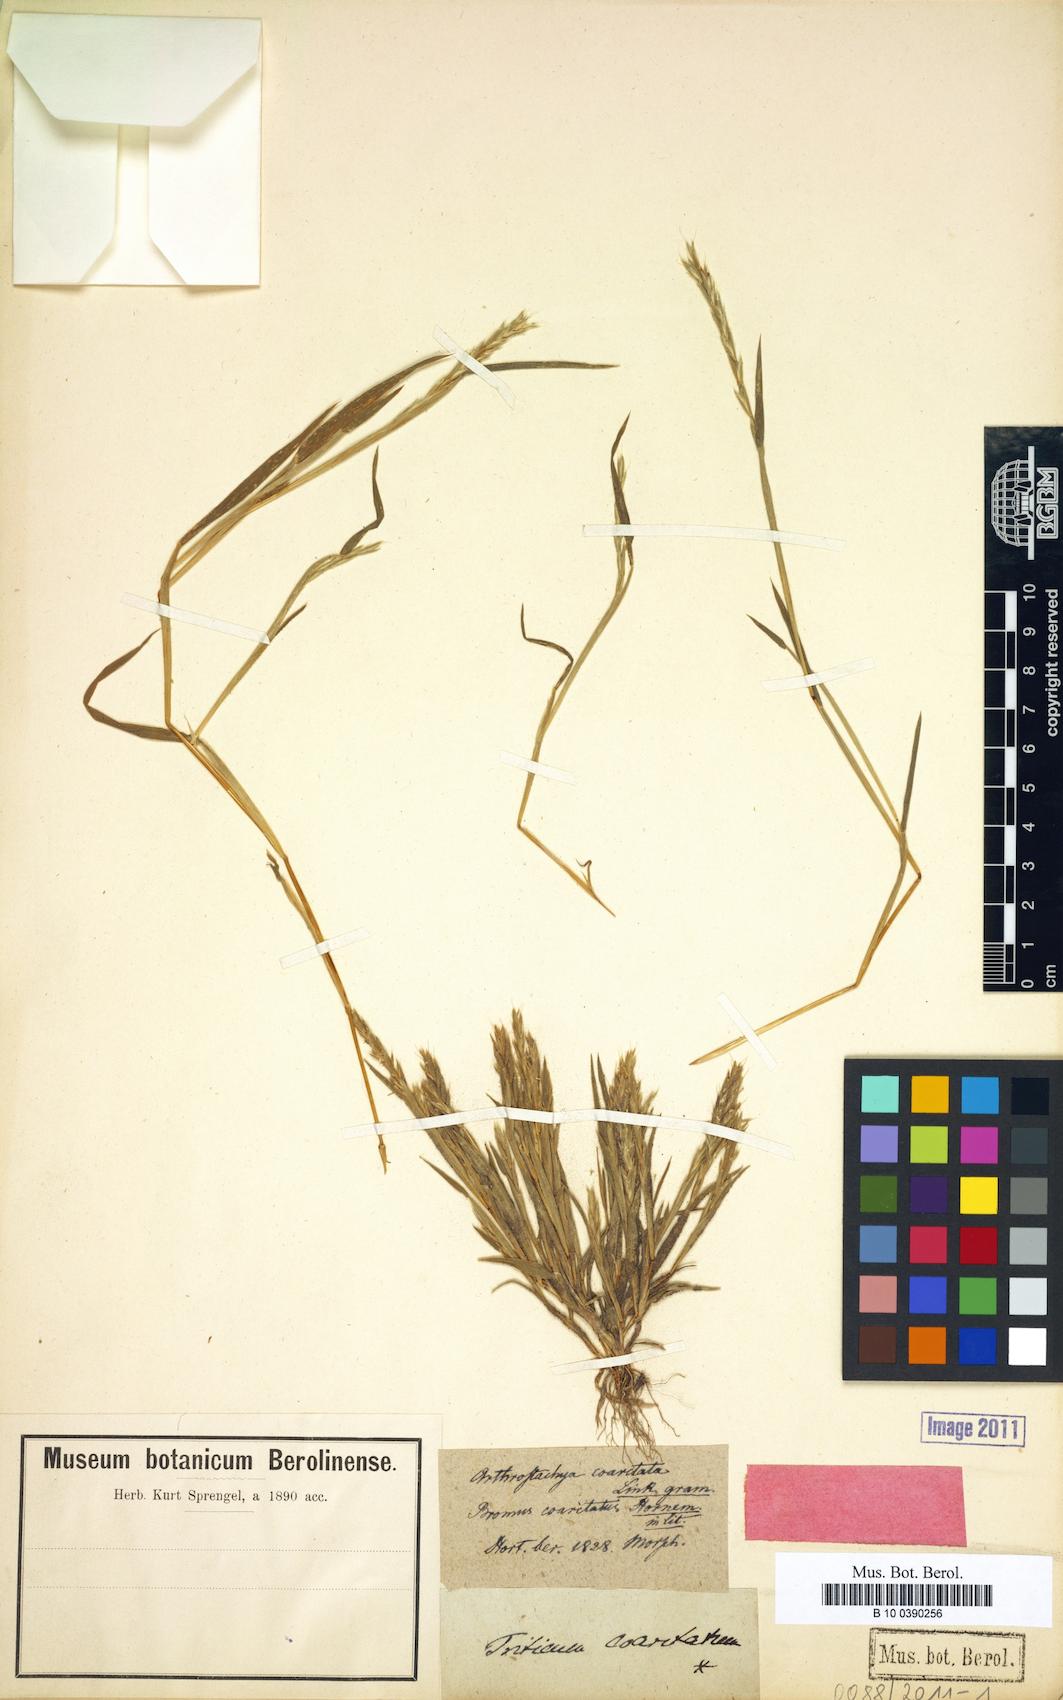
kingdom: Plantae
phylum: Tracheophyta
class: Liliopsida
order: Poales
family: Poaceae
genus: Andropogon
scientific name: Andropogon
